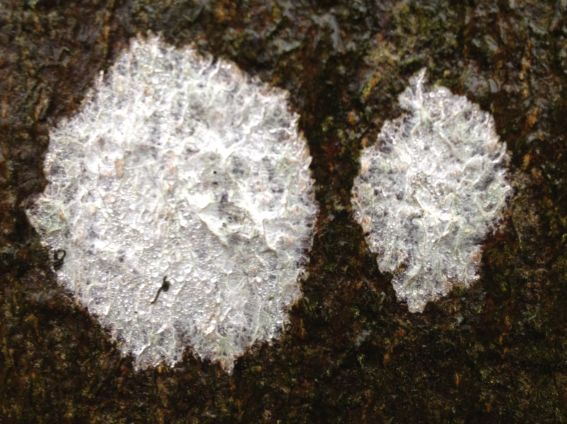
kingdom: Fungi
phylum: Ascomycota
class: Lecanoromycetes
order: Ostropales
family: Phlyctidaceae
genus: Phlyctis
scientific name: Phlyctis argena
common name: almindelig sølvlav
